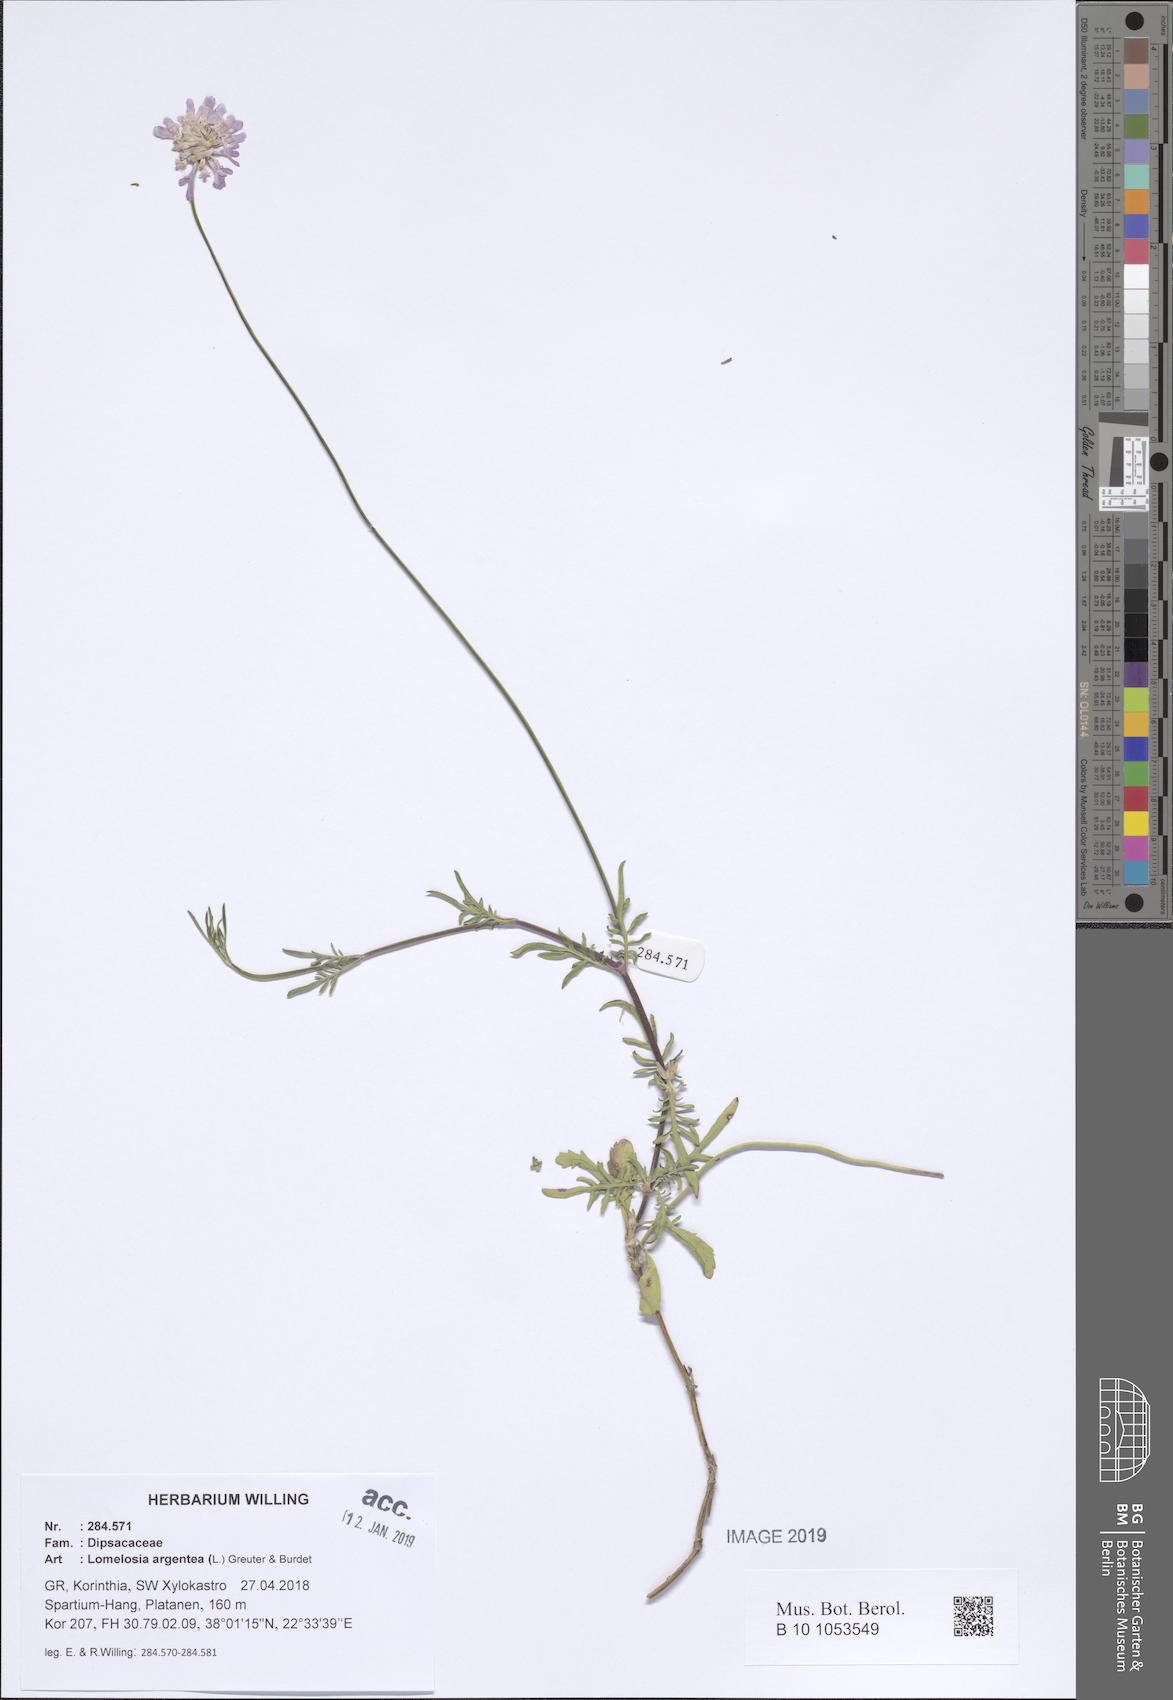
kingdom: Plantae
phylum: Tracheophyta
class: Magnoliopsida
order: Dipsacales
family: Caprifoliaceae
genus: Lomelosia
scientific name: Lomelosia argentea
